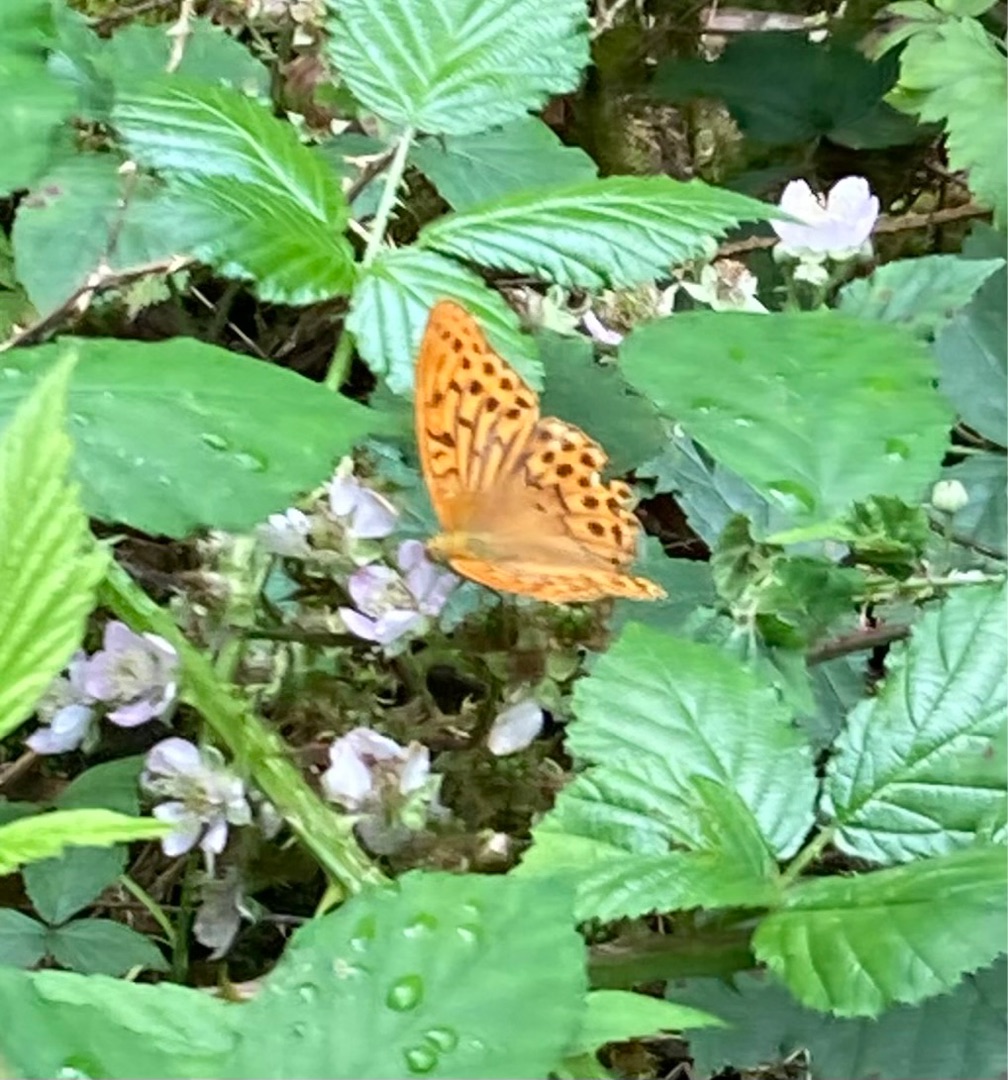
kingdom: Animalia
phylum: Arthropoda
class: Insecta
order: Lepidoptera
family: Nymphalidae
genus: Argynnis
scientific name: Argynnis paphia
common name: Kejserkåbe
